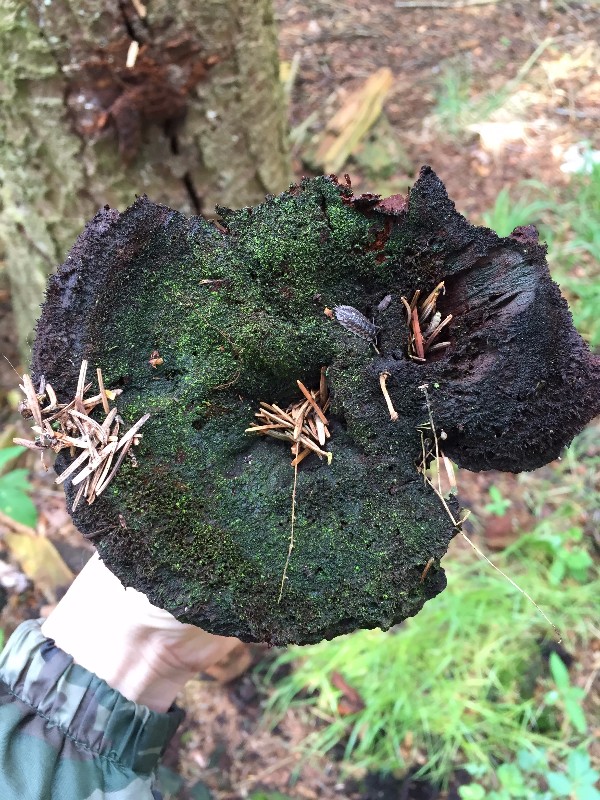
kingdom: Fungi
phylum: Basidiomycota
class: Agaricomycetes
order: Polyporales
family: Laetiporaceae
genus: Phaeolus
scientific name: Phaeolus schweinitzii
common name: brunporesvamp
